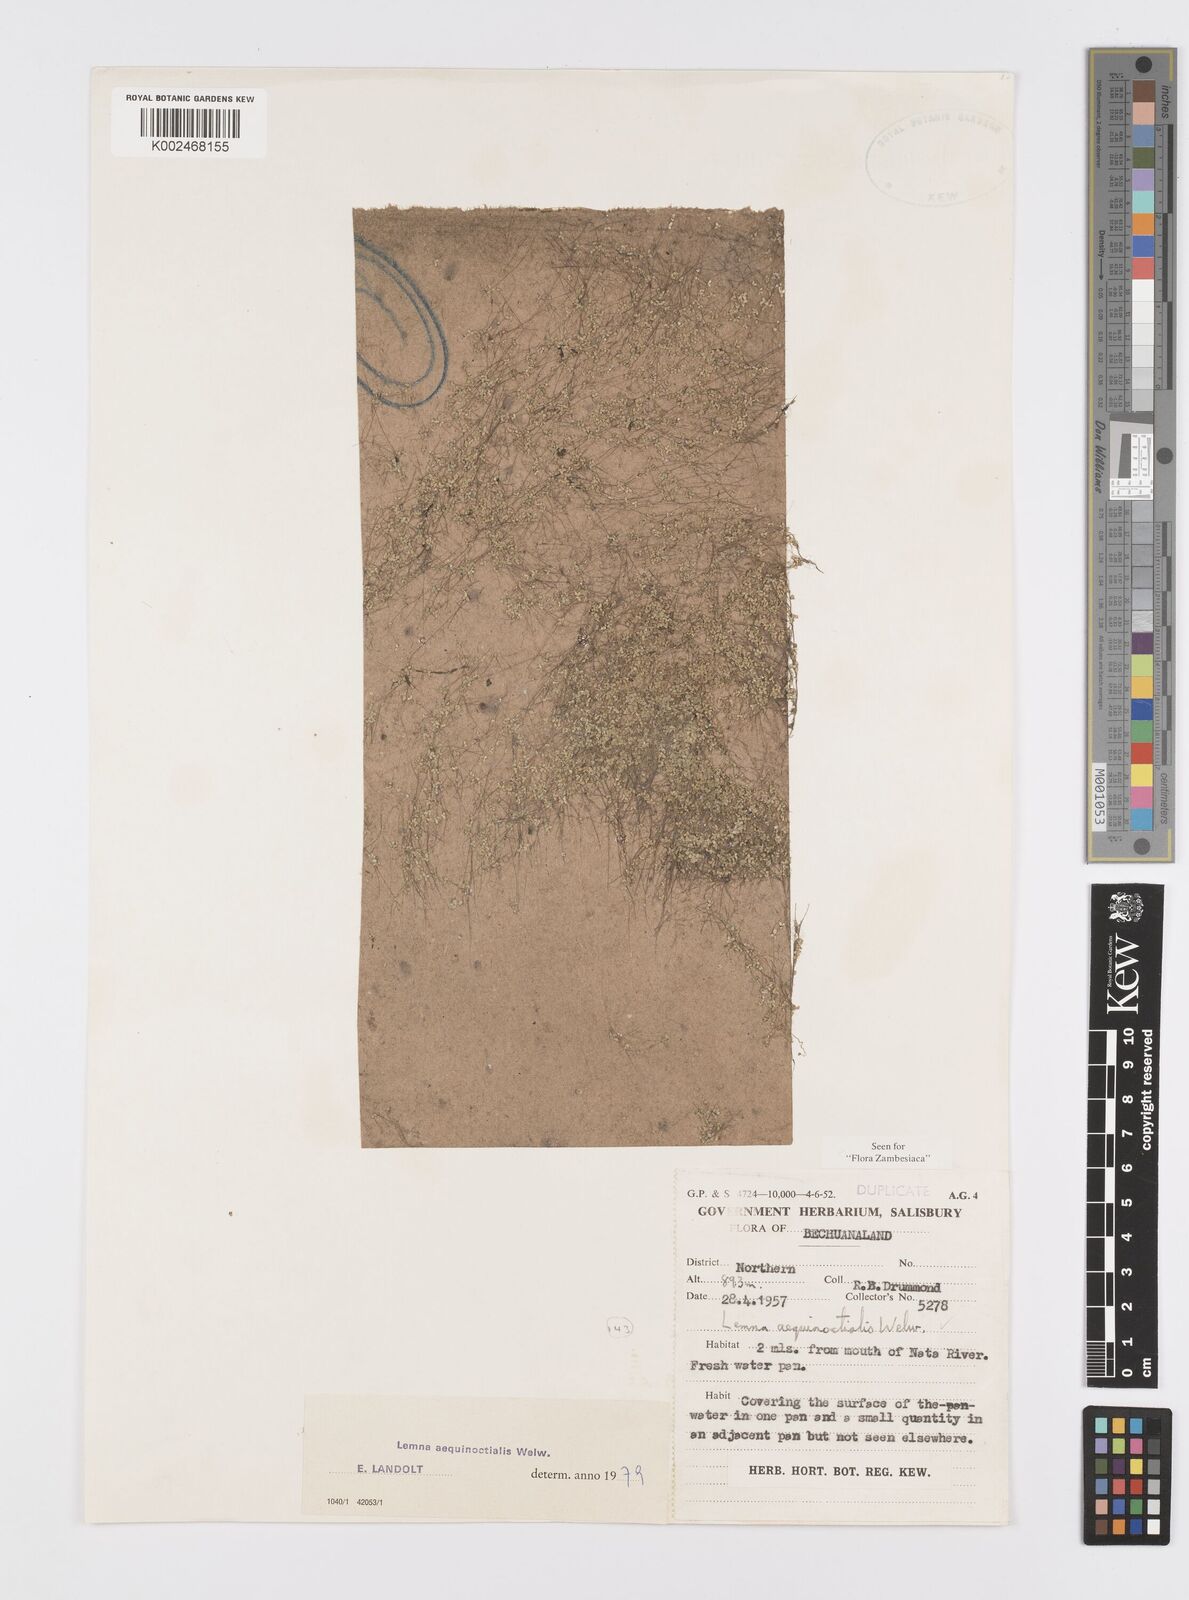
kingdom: Plantae
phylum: Tracheophyta
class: Liliopsida
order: Alismatales
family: Araceae
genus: Lemna
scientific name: Lemna aequinoctialis
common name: Duckweed
